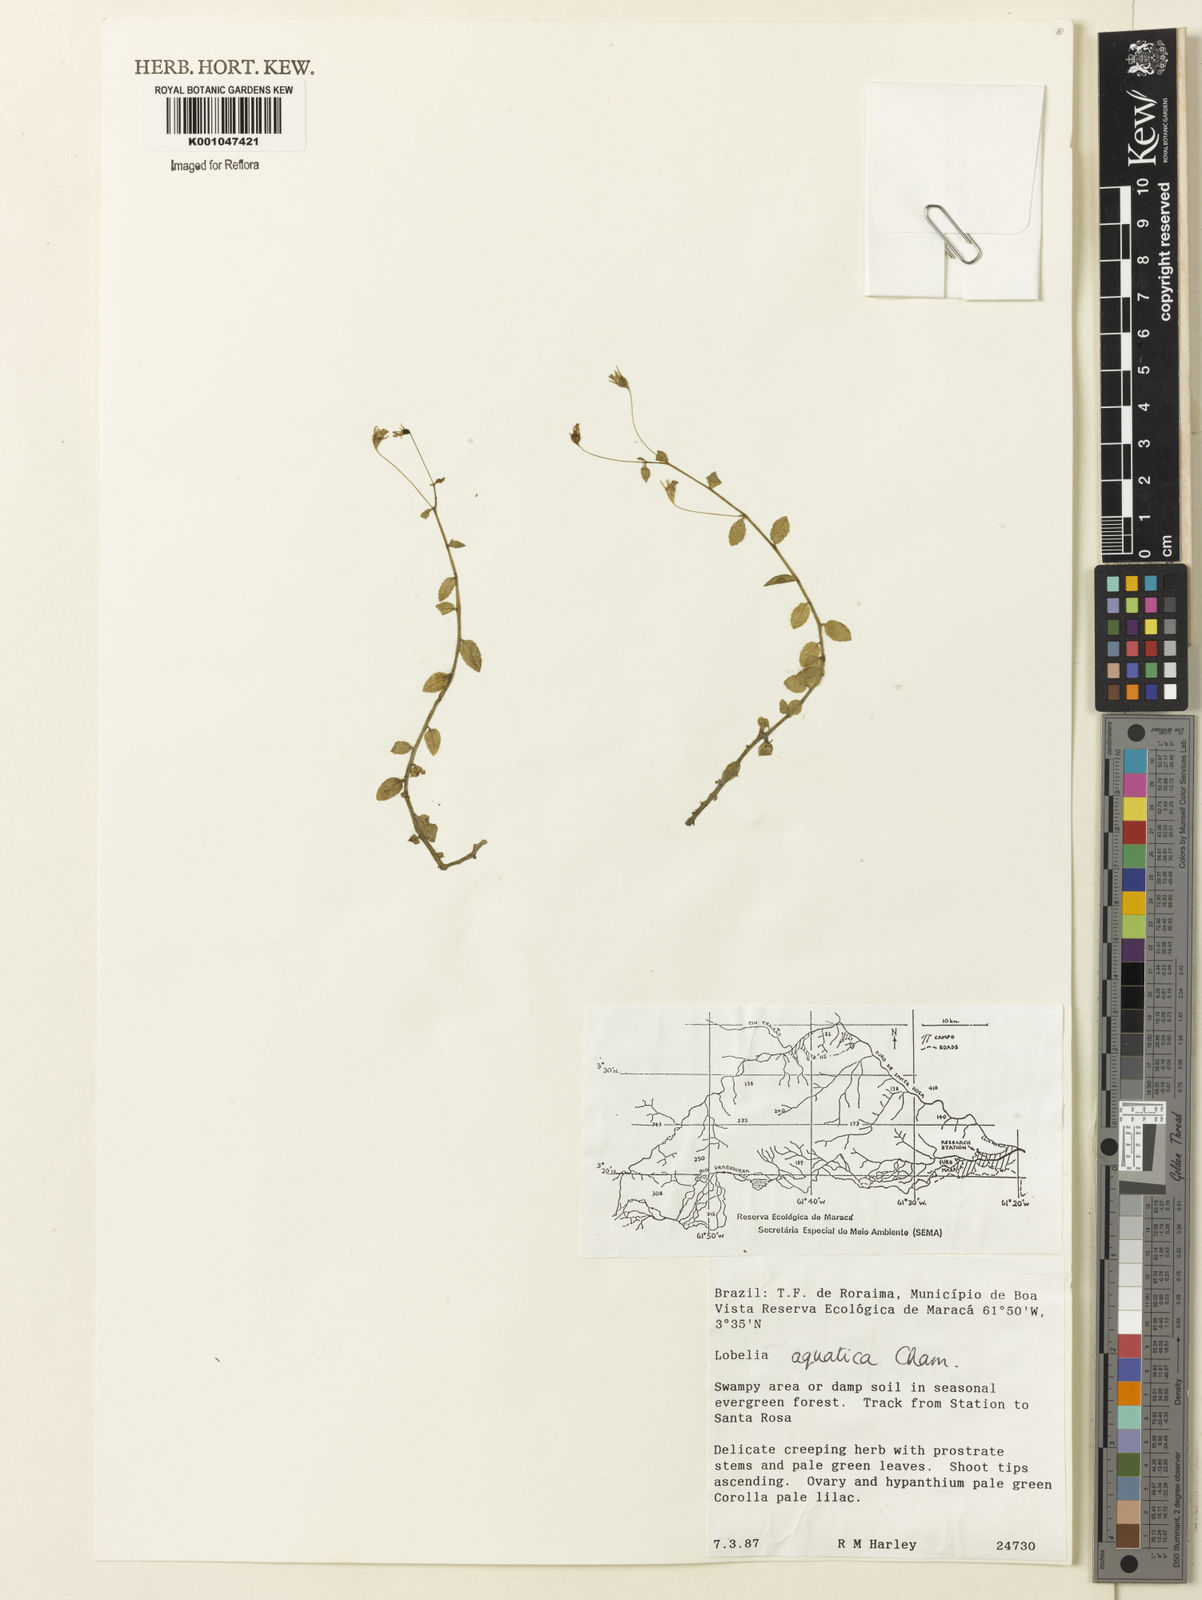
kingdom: Plantae
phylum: Tracheophyta
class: Magnoliopsida
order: Asterales
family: Campanulaceae
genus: Lobelia
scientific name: Lobelia aquatica
